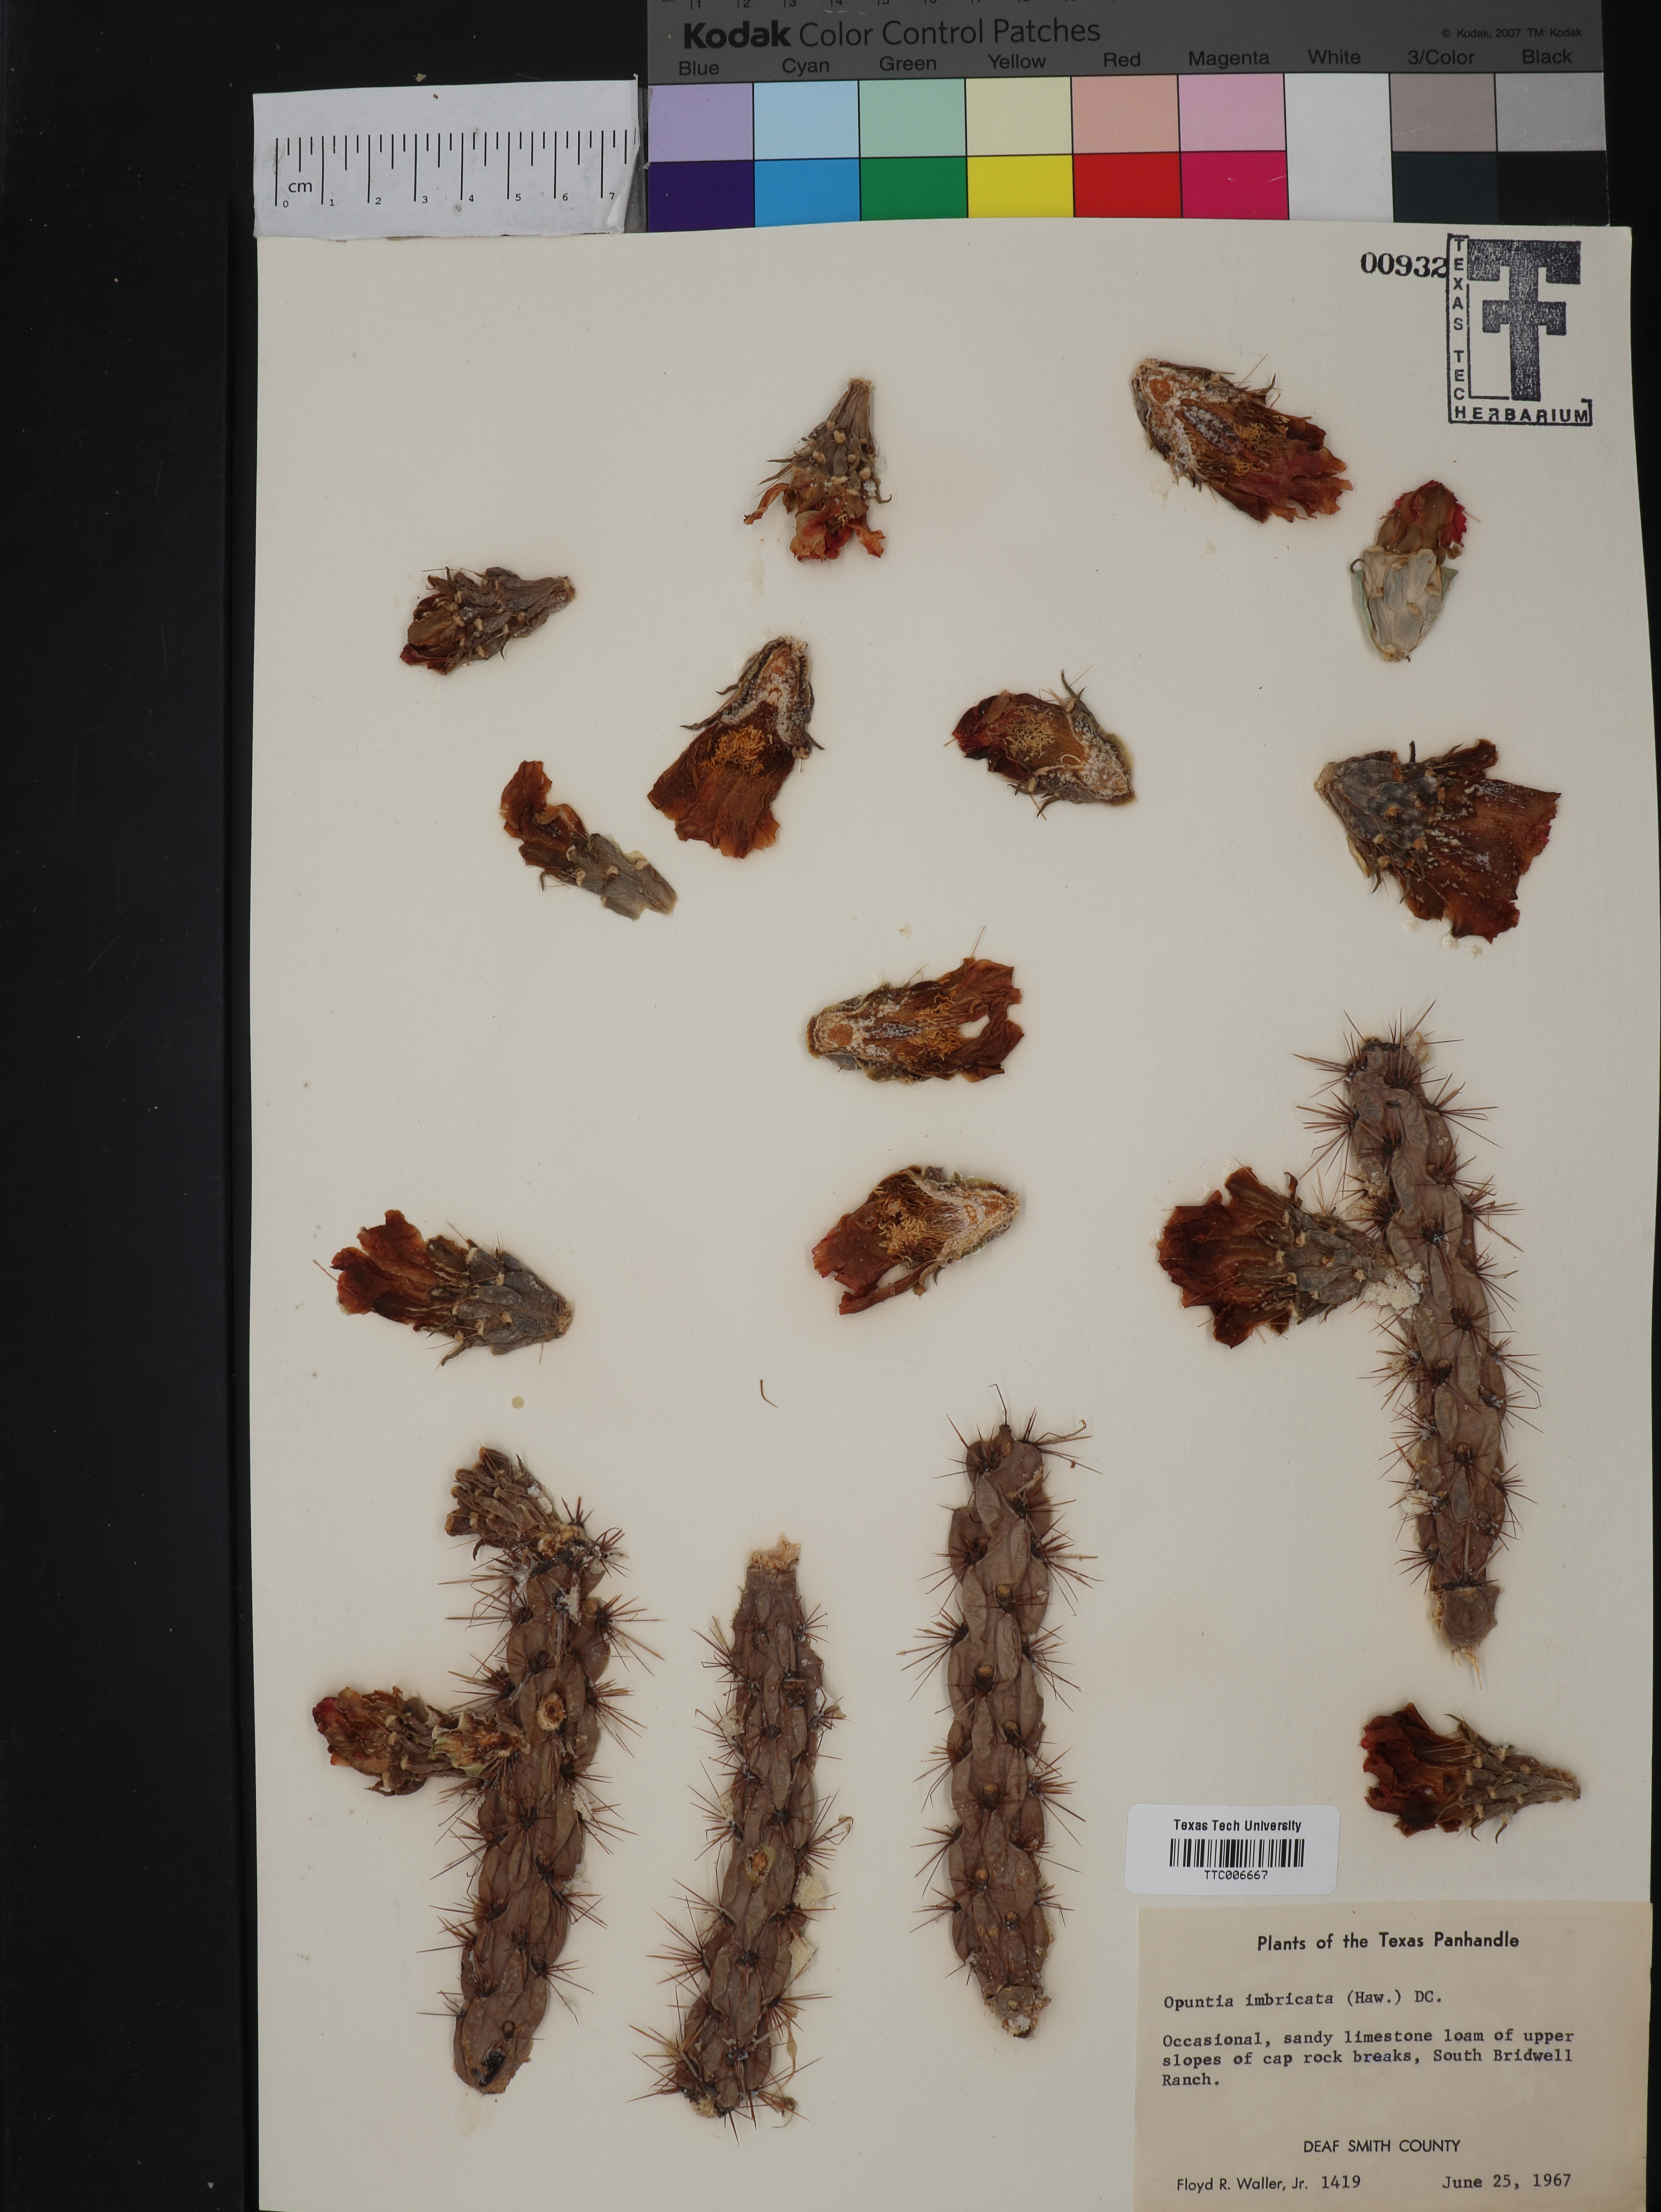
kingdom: Plantae
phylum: Tracheophyta
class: Magnoliopsida
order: Caryophyllales
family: Cactaceae
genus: Cylindropuntia
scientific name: Cylindropuntia imbricata
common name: Candelabrum cactus
